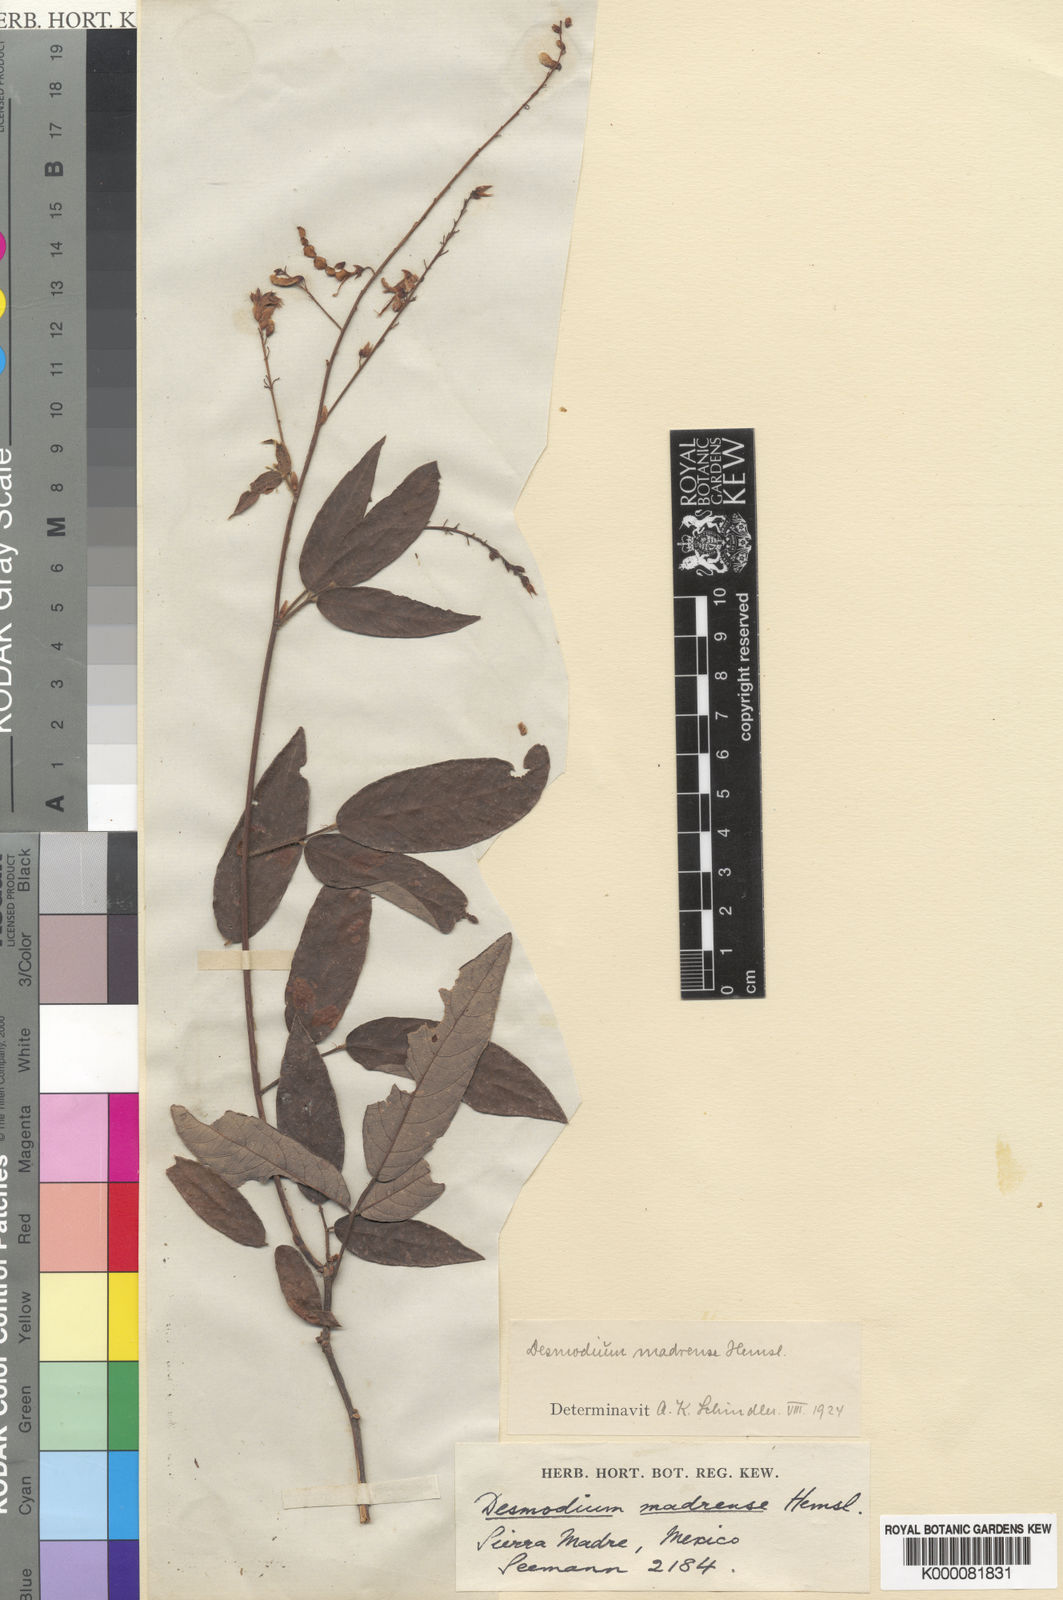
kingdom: Plantae
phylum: Tracheophyta
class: Magnoliopsida
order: Fabales
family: Fabaceae
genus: Desmodium
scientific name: Desmodium madrense
